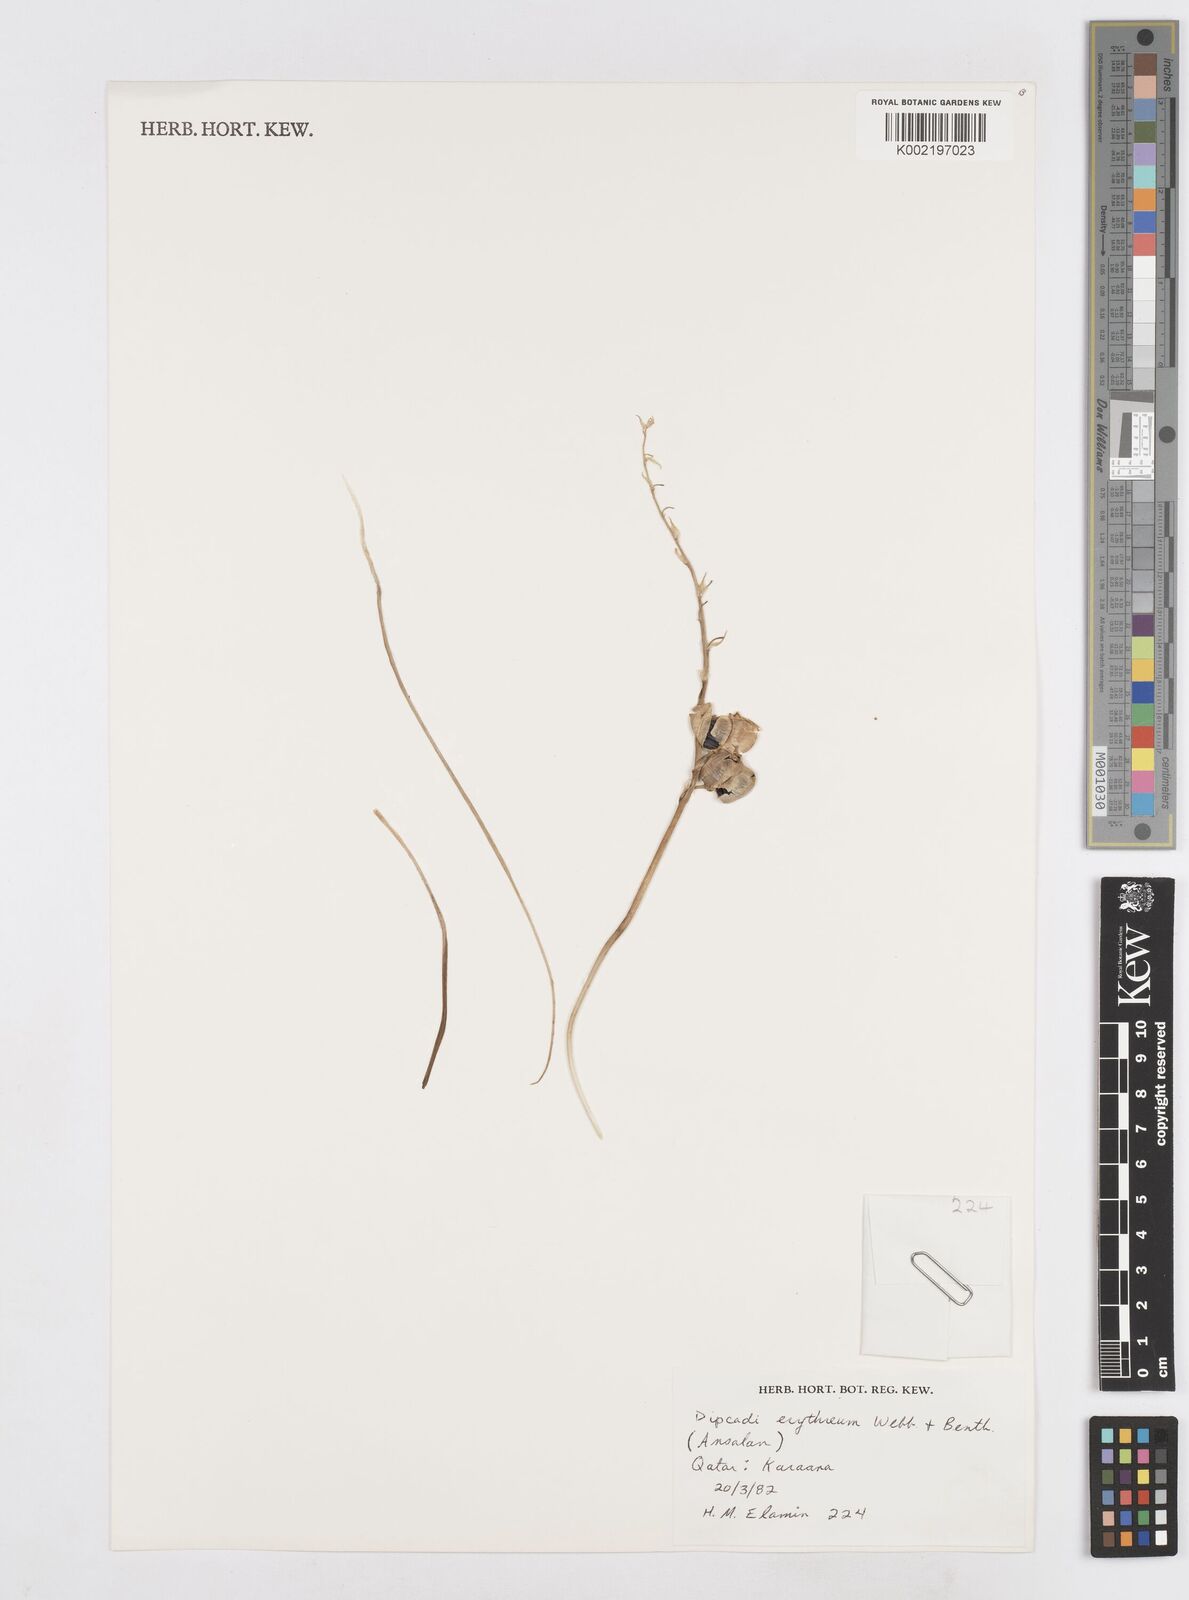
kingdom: Plantae
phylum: Tracheophyta
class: Liliopsida
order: Asparagales
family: Asparagaceae
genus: Dipcadi
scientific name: Dipcadi erythraeum
